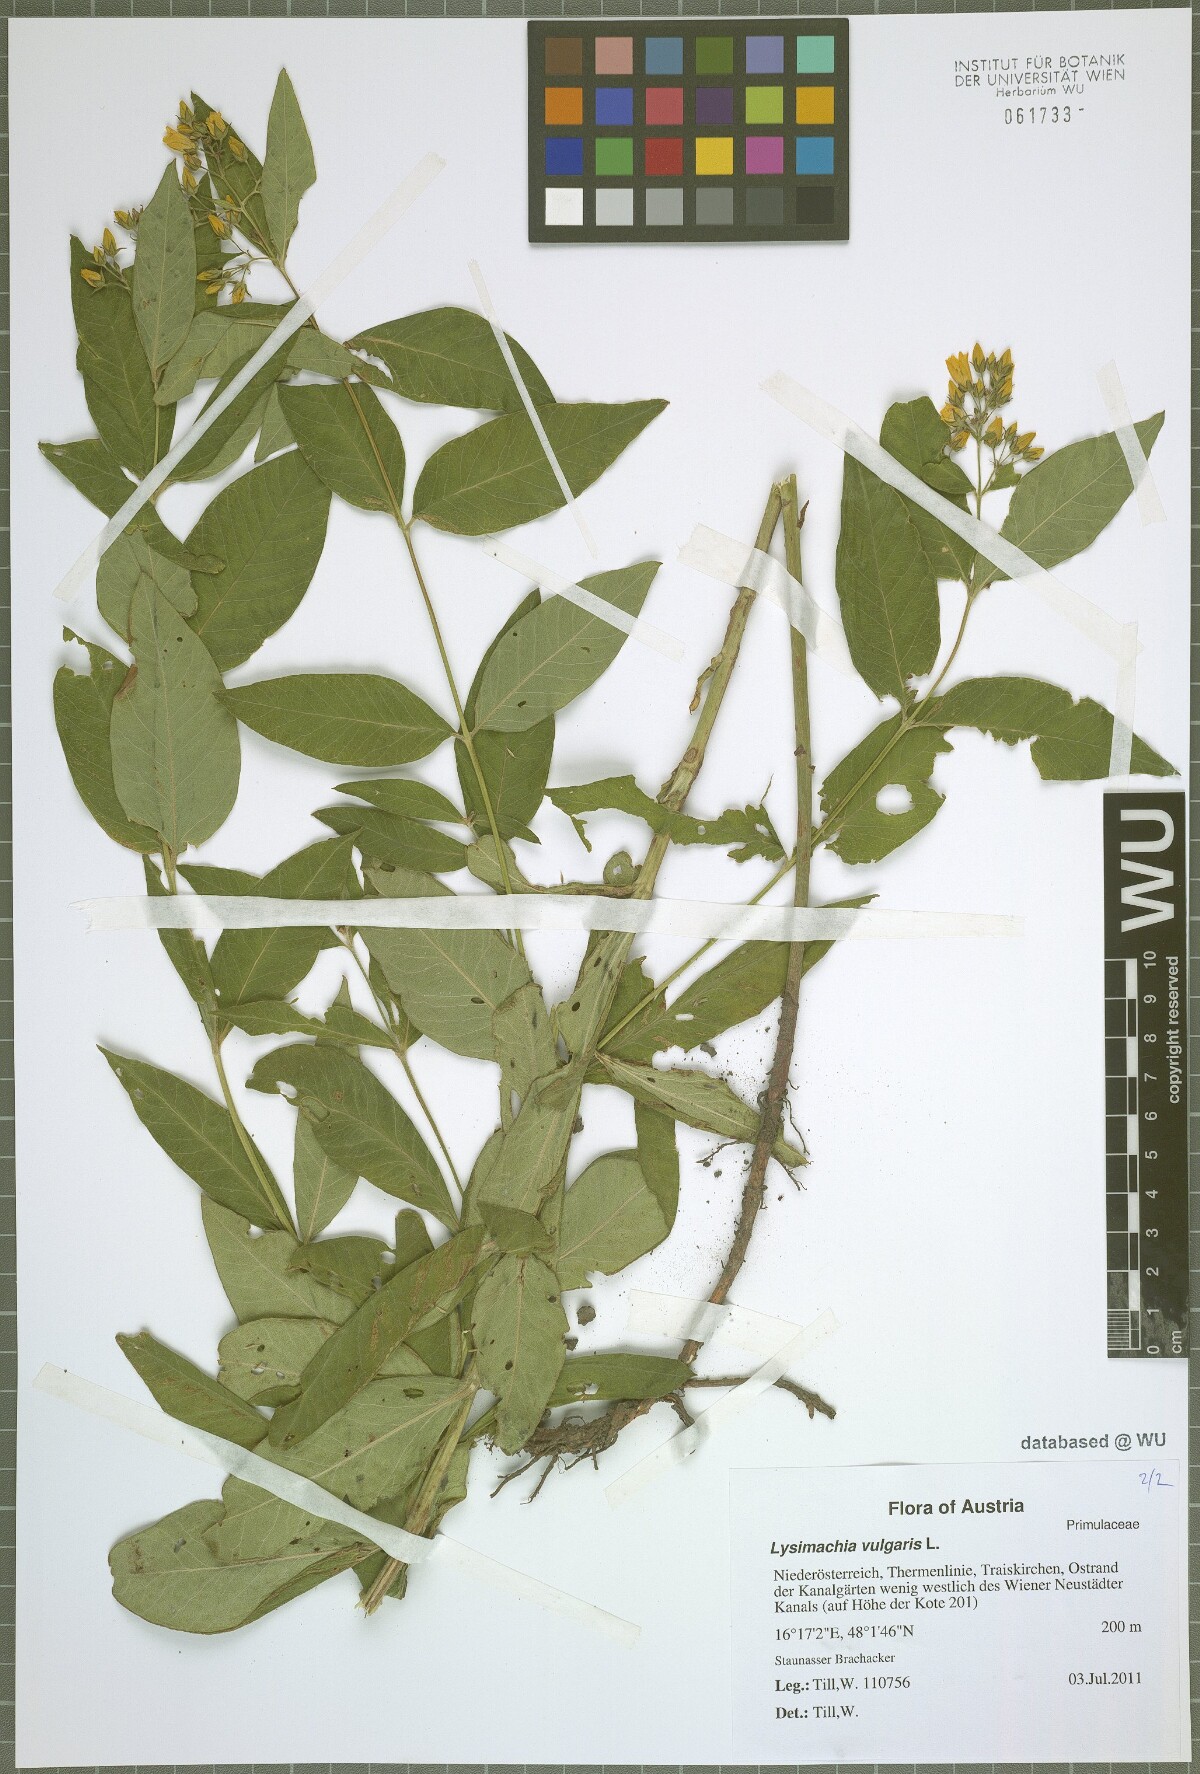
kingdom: Plantae
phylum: Tracheophyta
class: Magnoliopsida
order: Ericales
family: Primulaceae
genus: Lysimachia
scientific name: Lysimachia vulgaris
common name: Yellow loosestrife
